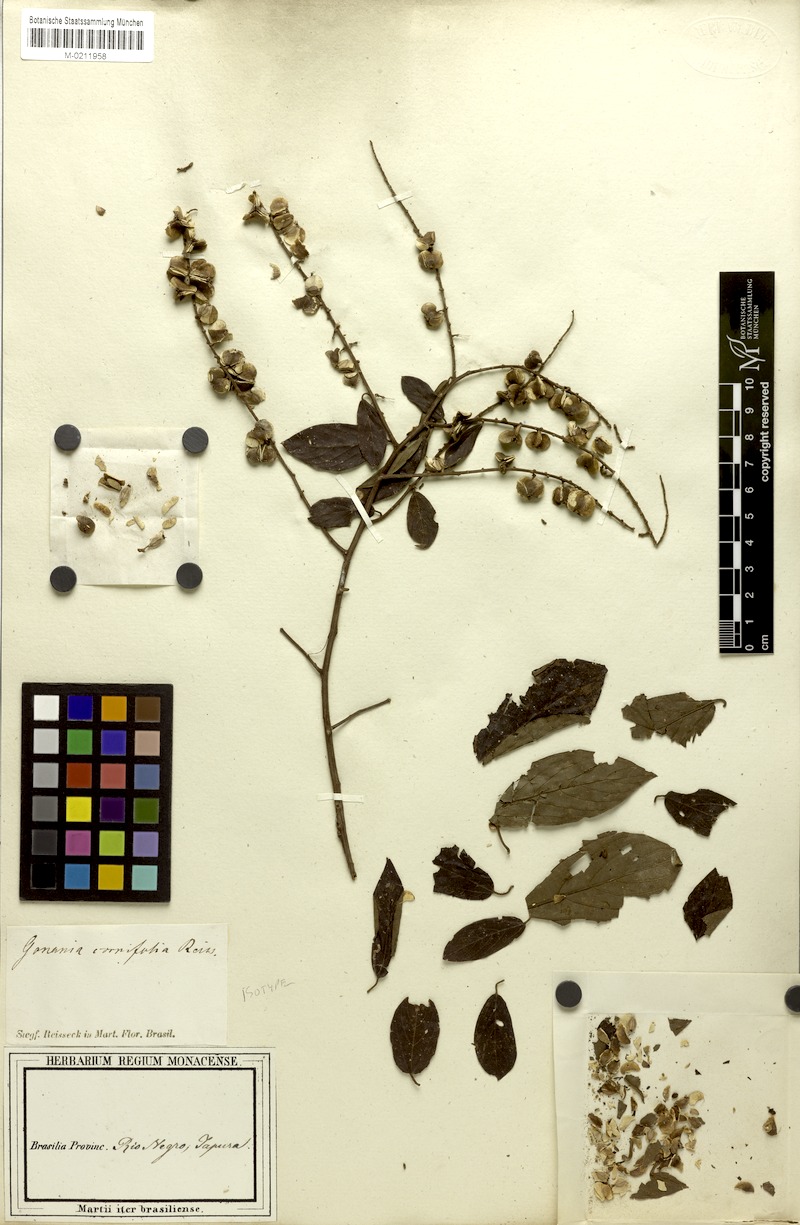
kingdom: Plantae
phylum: Tracheophyta
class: Magnoliopsida
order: Rosales
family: Rhamnaceae
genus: Gouania
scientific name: Gouania cornifolia
